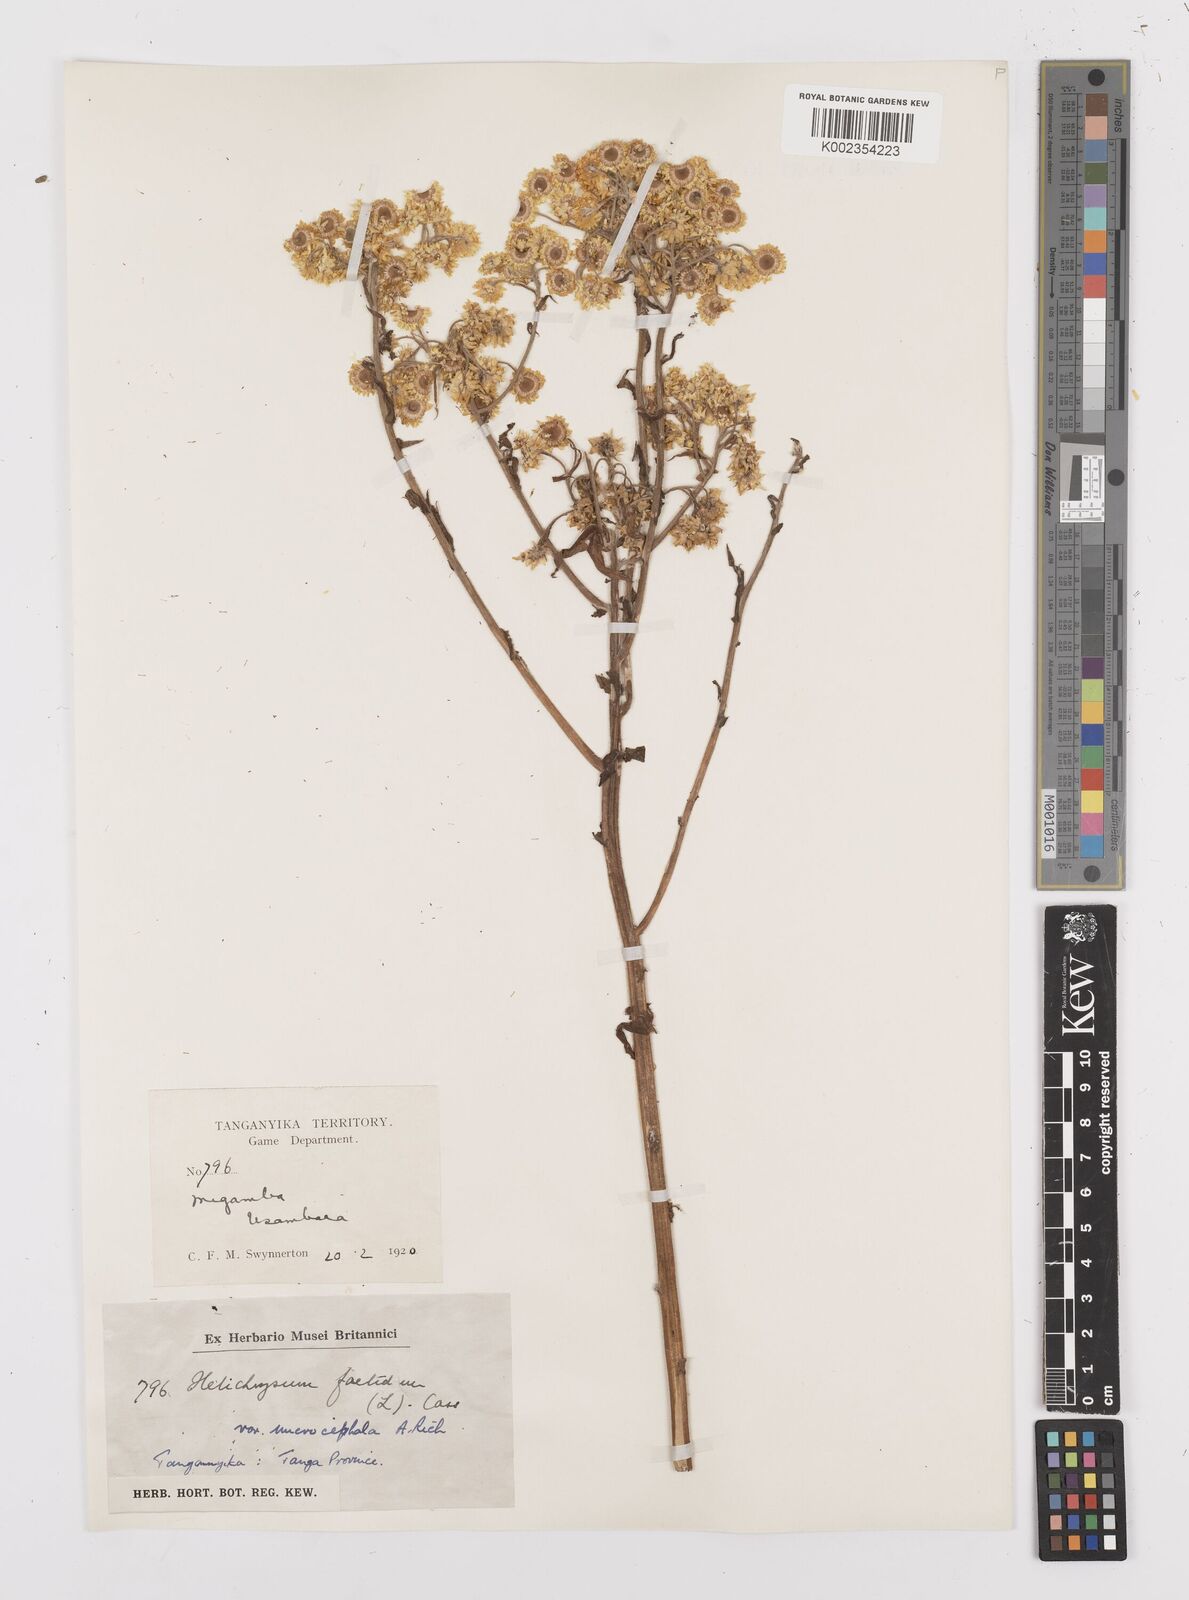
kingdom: Plantae
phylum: Tracheophyta
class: Magnoliopsida
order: Asterales
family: Asteraceae
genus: Helichrysum
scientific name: Helichrysum
